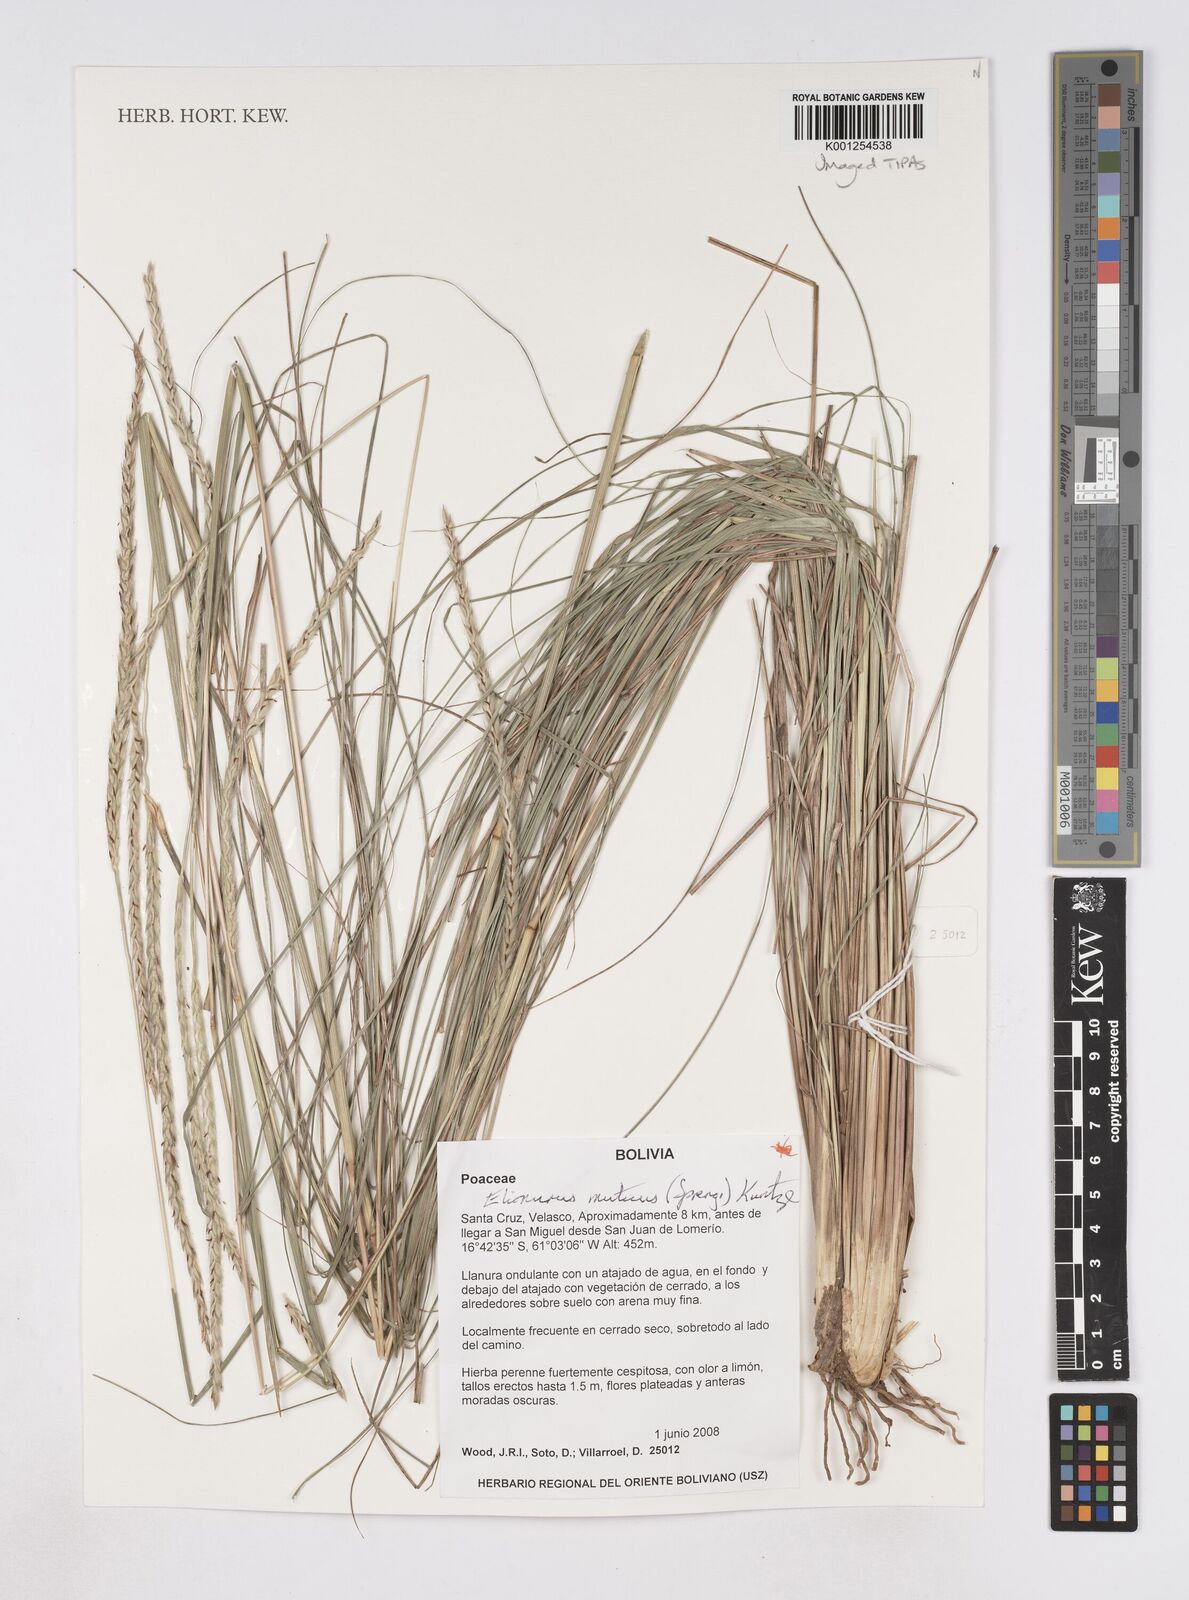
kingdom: Plantae
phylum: Tracheophyta
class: Liliopsida
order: Poales
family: Poaceae
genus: Elionurus
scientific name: Elionurus muticus
